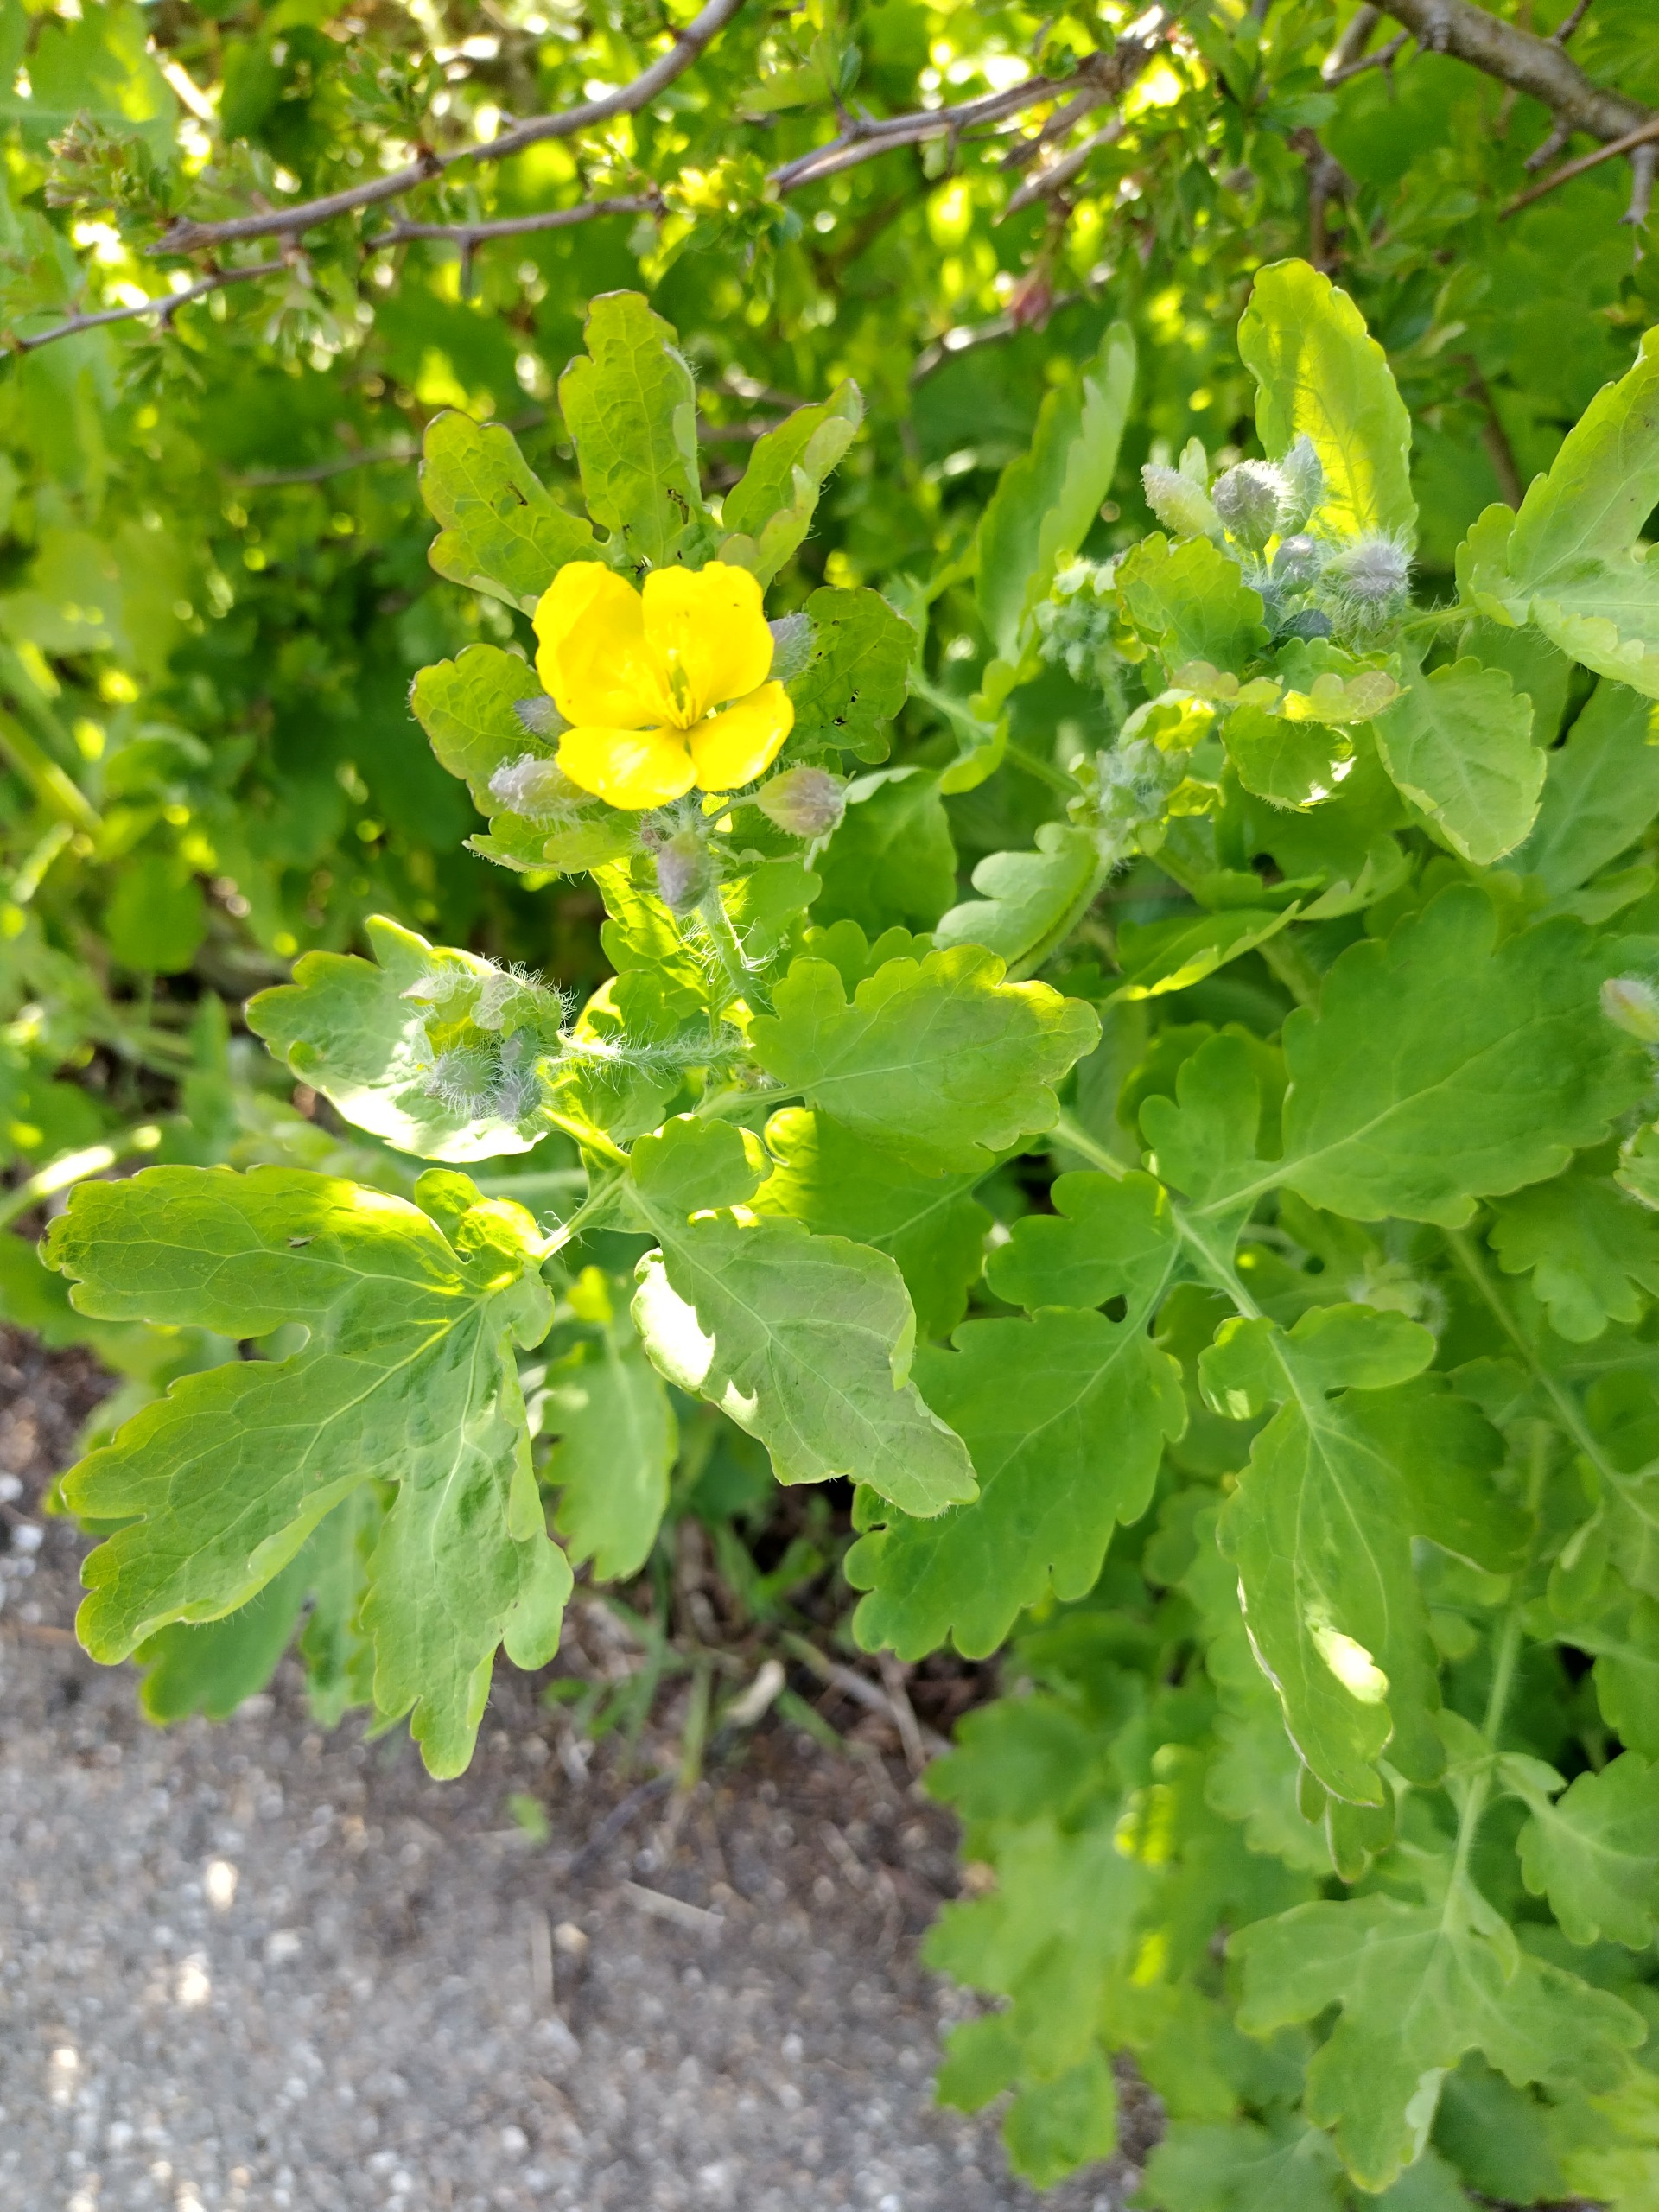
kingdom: Plantae
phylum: Tracheophyta
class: Magnoliopsida
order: Ranunculales
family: Papaveraceae
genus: Chelidonium
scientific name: Chelidonium majus
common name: Svaleurt
